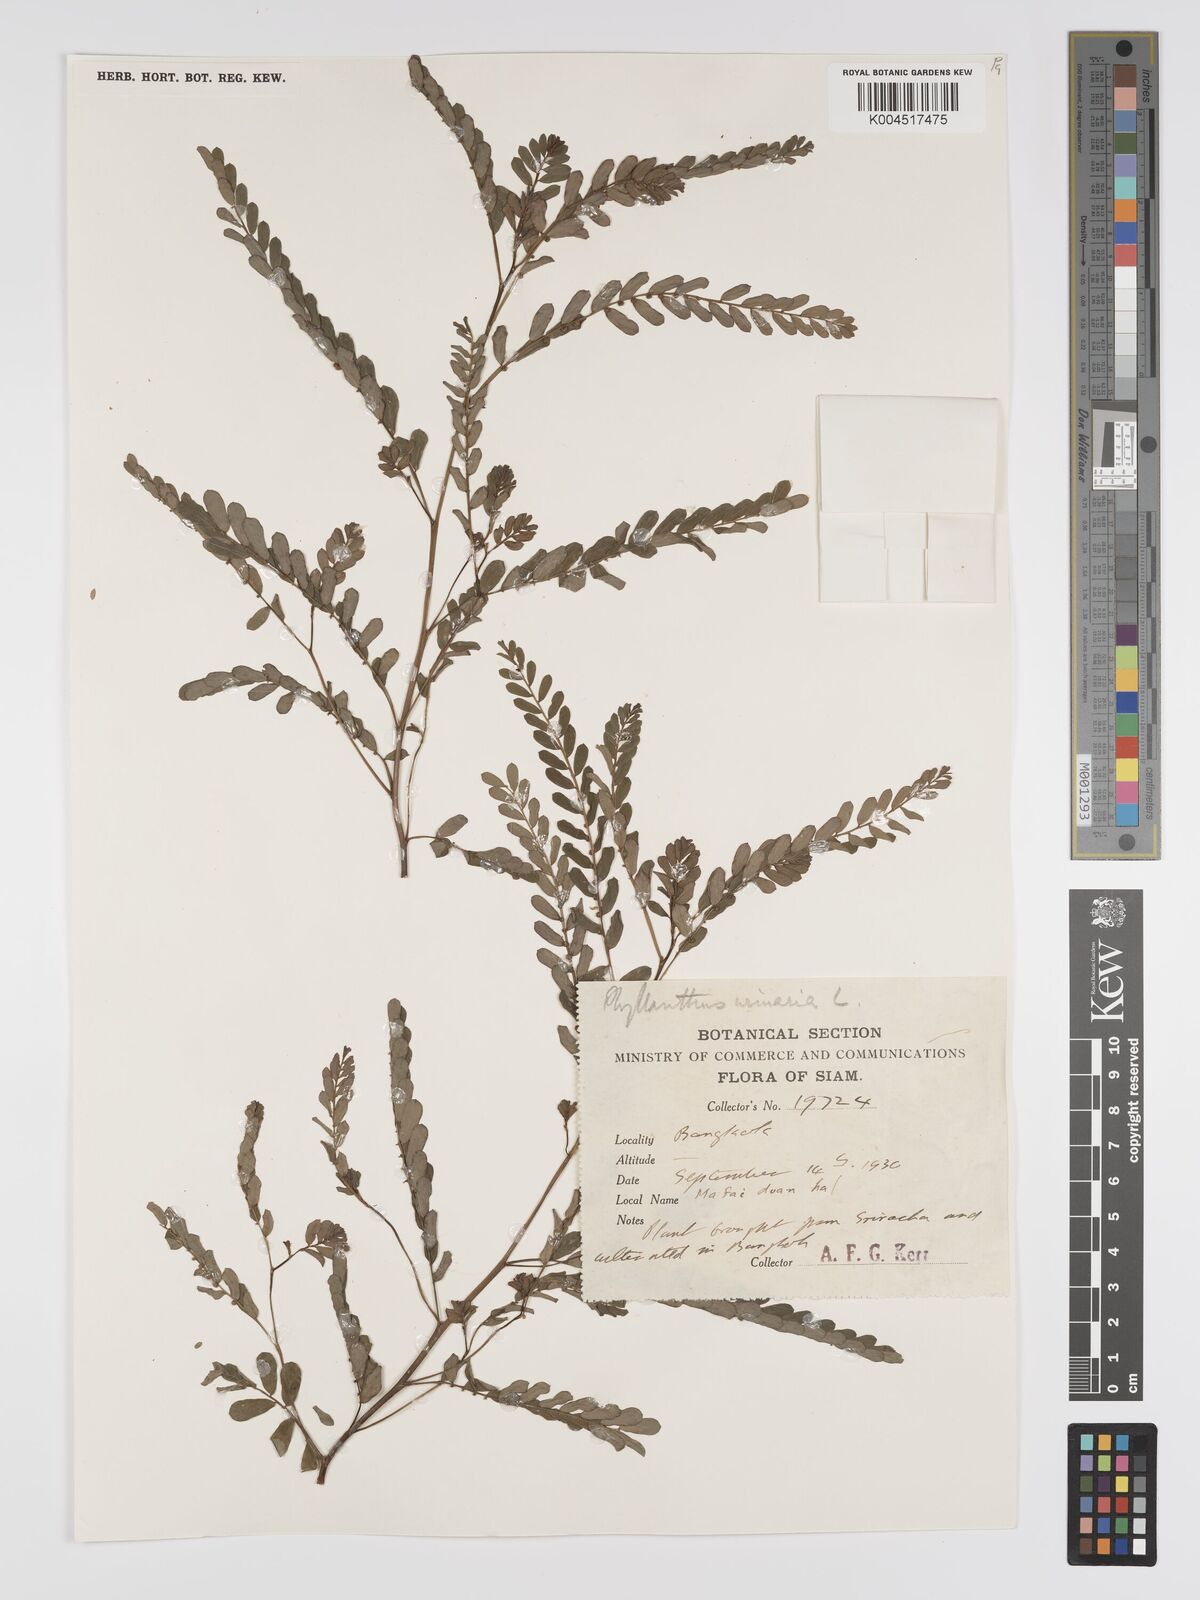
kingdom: Plantae
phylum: Tracheophyta
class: Magnoliopsida
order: Malpighiales
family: Phyllanthaceae
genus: Phyllanthus
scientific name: Phyllanthus urinaria
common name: Chamber bitter
